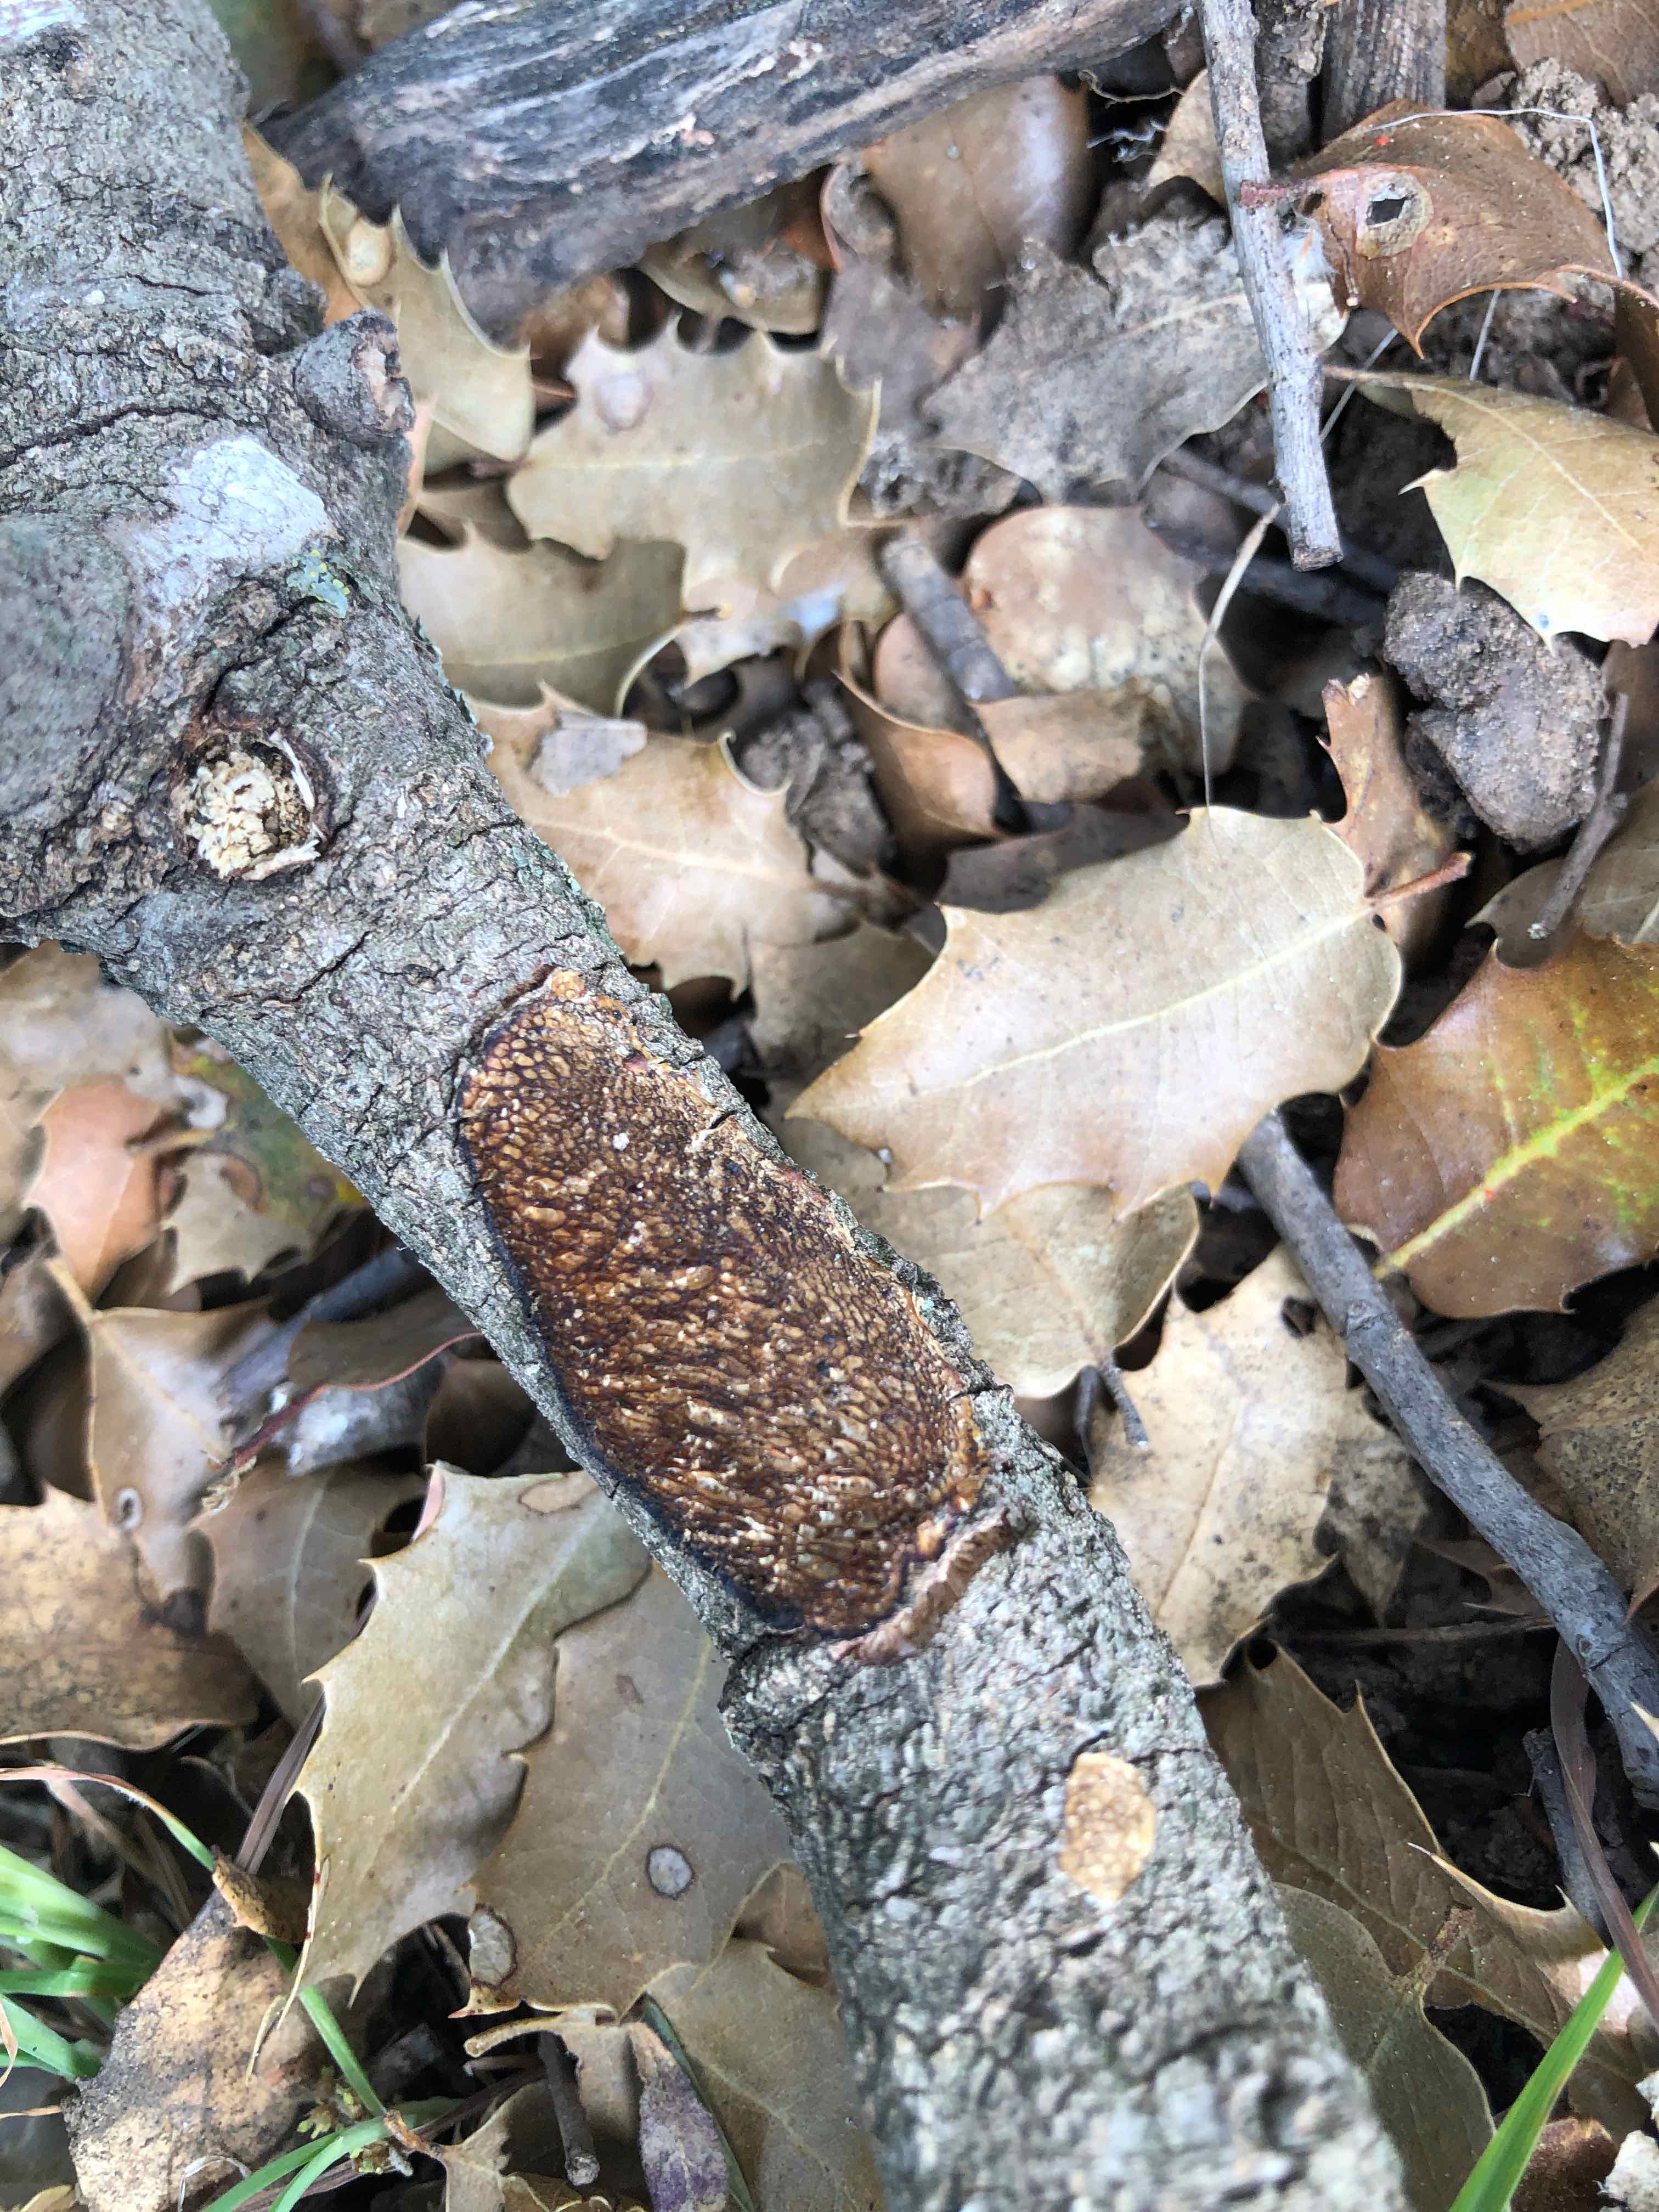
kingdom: Fungi
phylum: Basidiomycota
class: Agaricomycetes
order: Polyporales
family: Polyporaceae
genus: Szczepkamyces
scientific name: Szczepkamyces campestris
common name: hasselporesvamp
